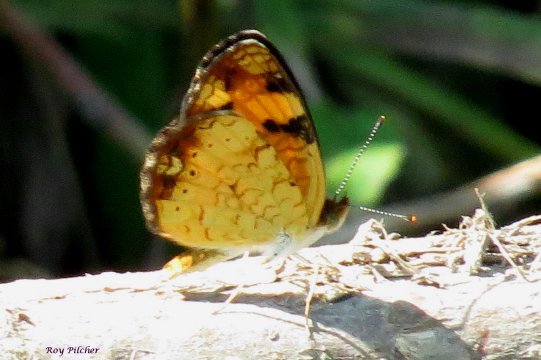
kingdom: Animalia
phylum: Arthropoda
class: Insecta
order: Lepidoptera
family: Nymphalidae
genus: Phyciodes
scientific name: Phyciodes tharos
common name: Pearl Crescent
